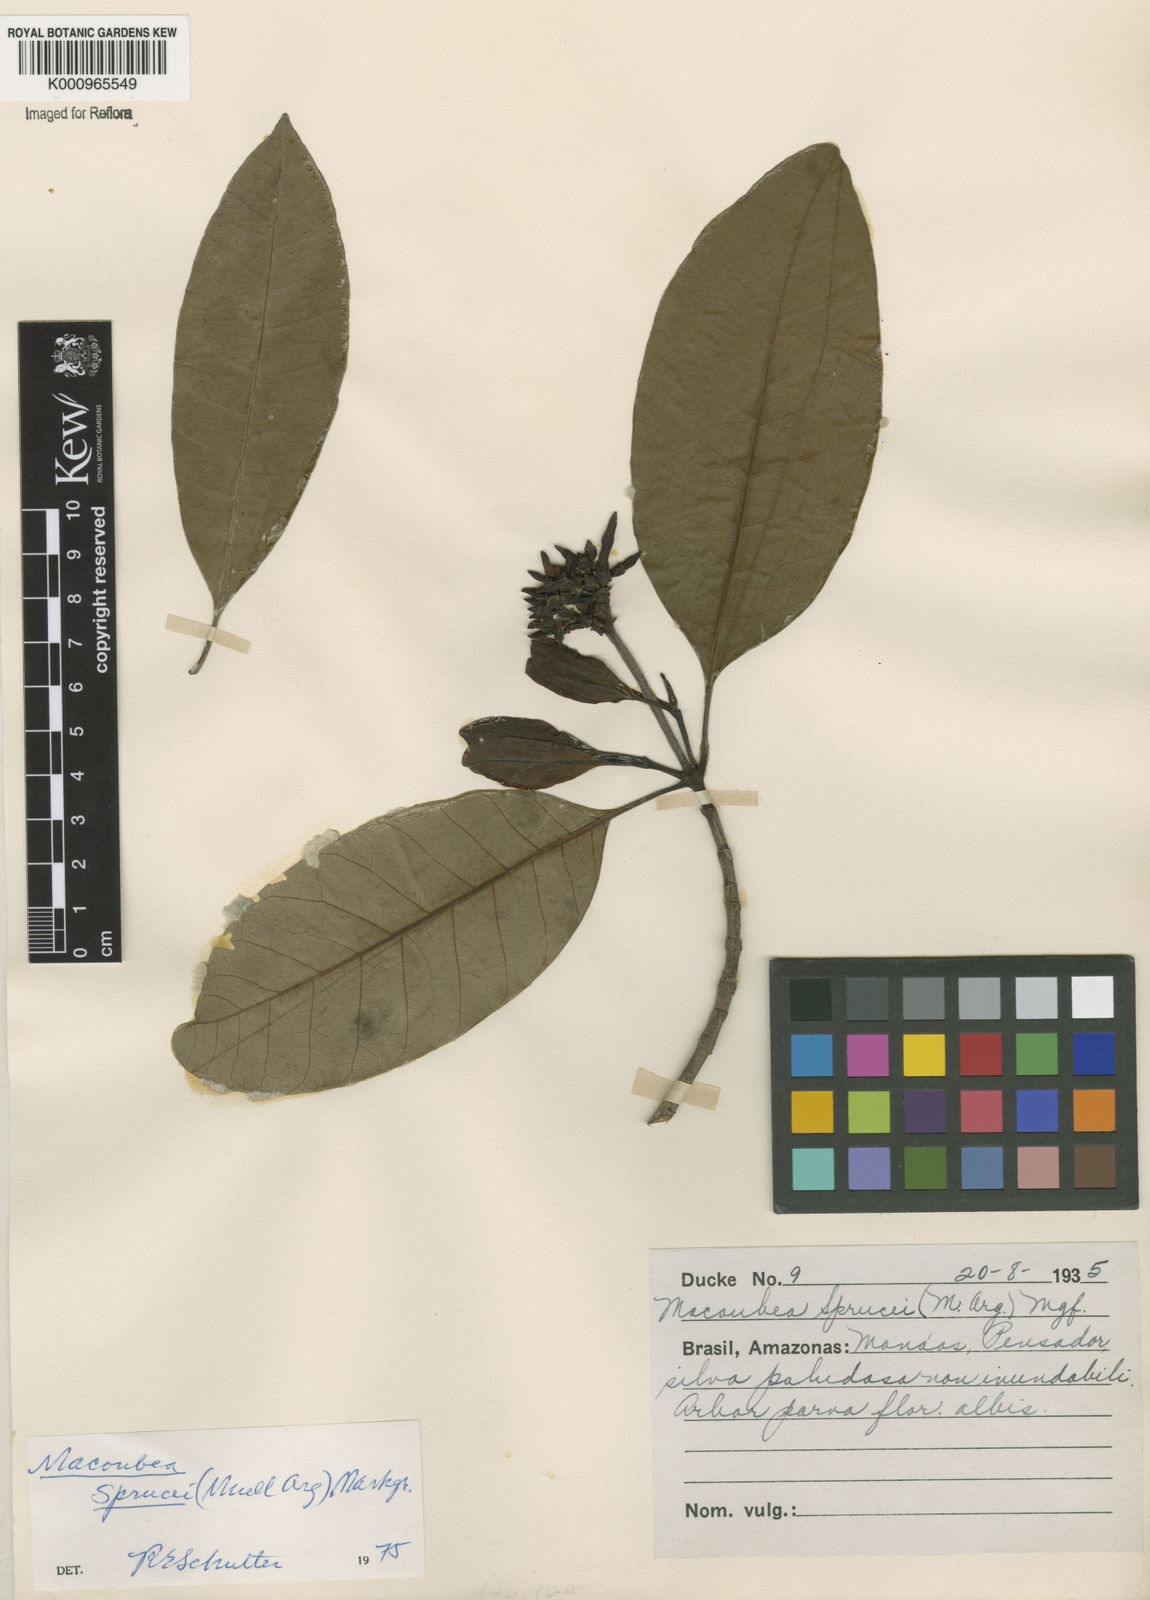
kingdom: Plantae
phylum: Tracheophyta
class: Magnoliopsida
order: Gentianales
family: Apocynaceae
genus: Macoubea
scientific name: Macoubea
